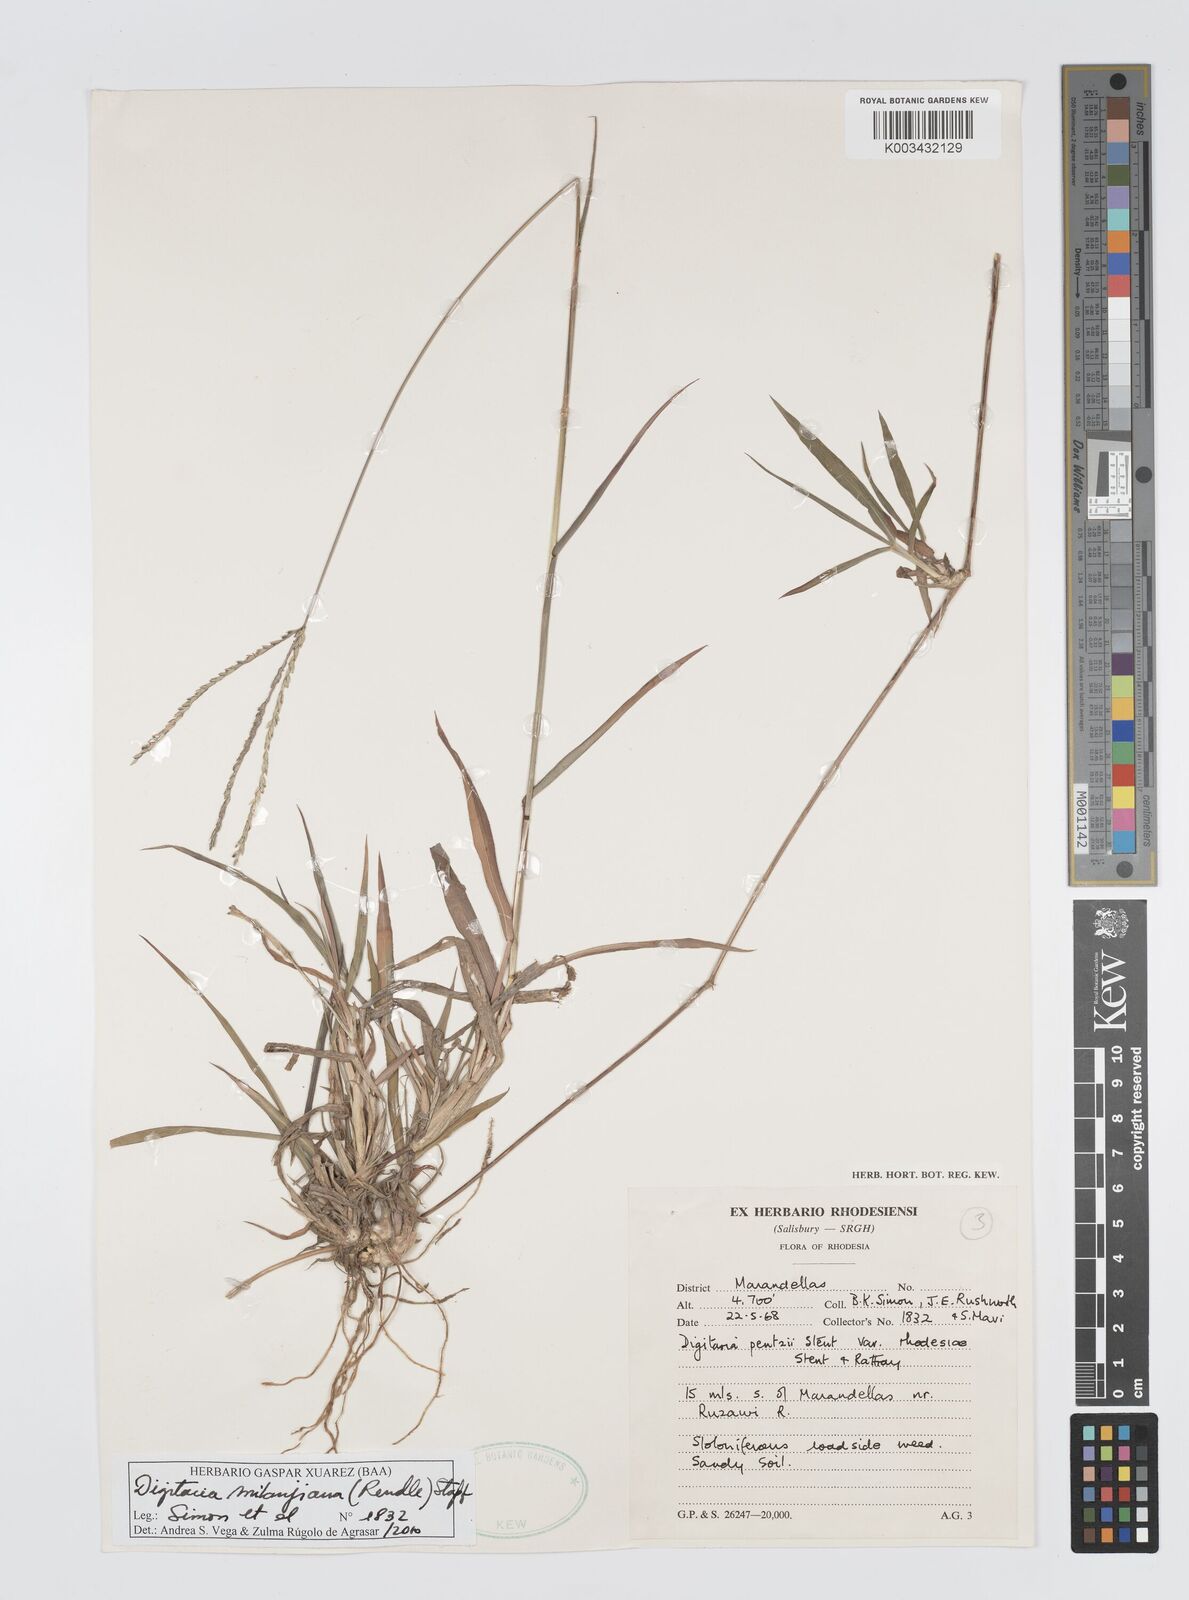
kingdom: Plantae
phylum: Tracheophyta
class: Liliopsida
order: Poales
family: Poaceae
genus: Digitaria
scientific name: Digitaria milanjiana
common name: Madagascar crabgrass
